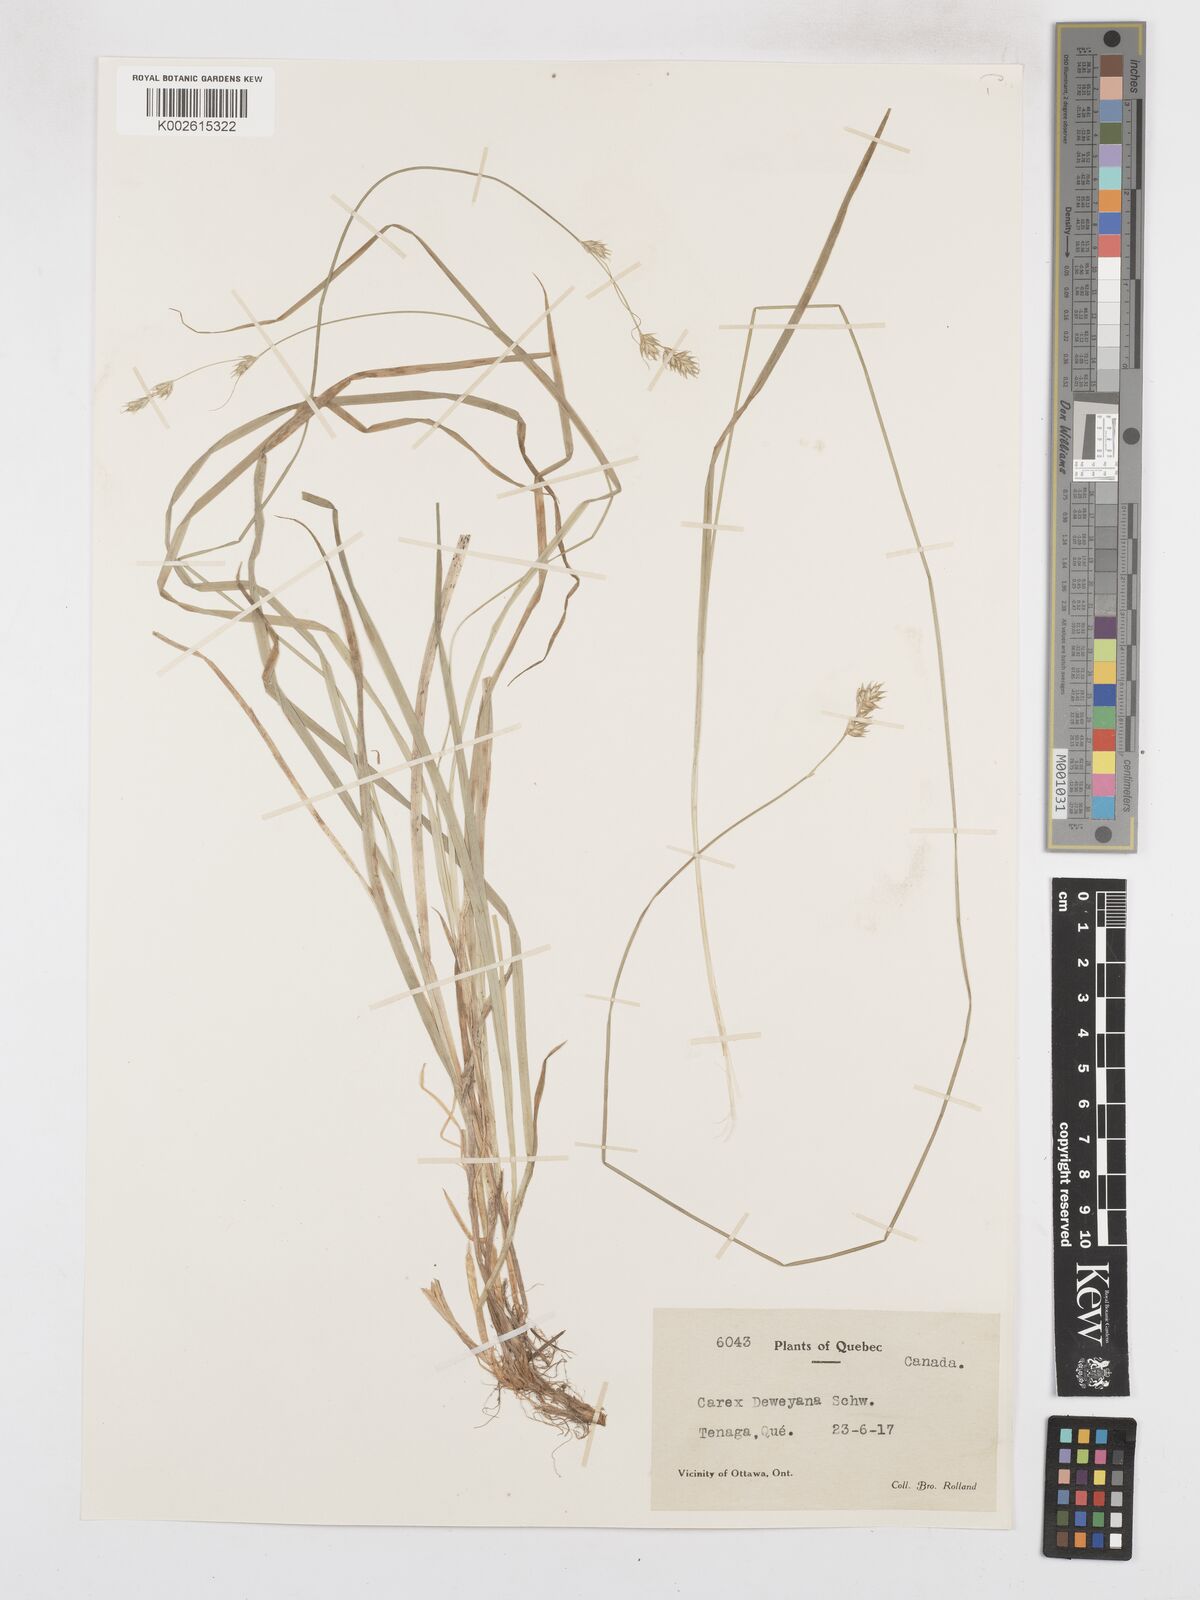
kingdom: Plantae
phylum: Tracheophyta
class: Liliopsida
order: Poales
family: Cyperaceae
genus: Carex
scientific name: Carex deweyana
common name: Dewey's sedge
